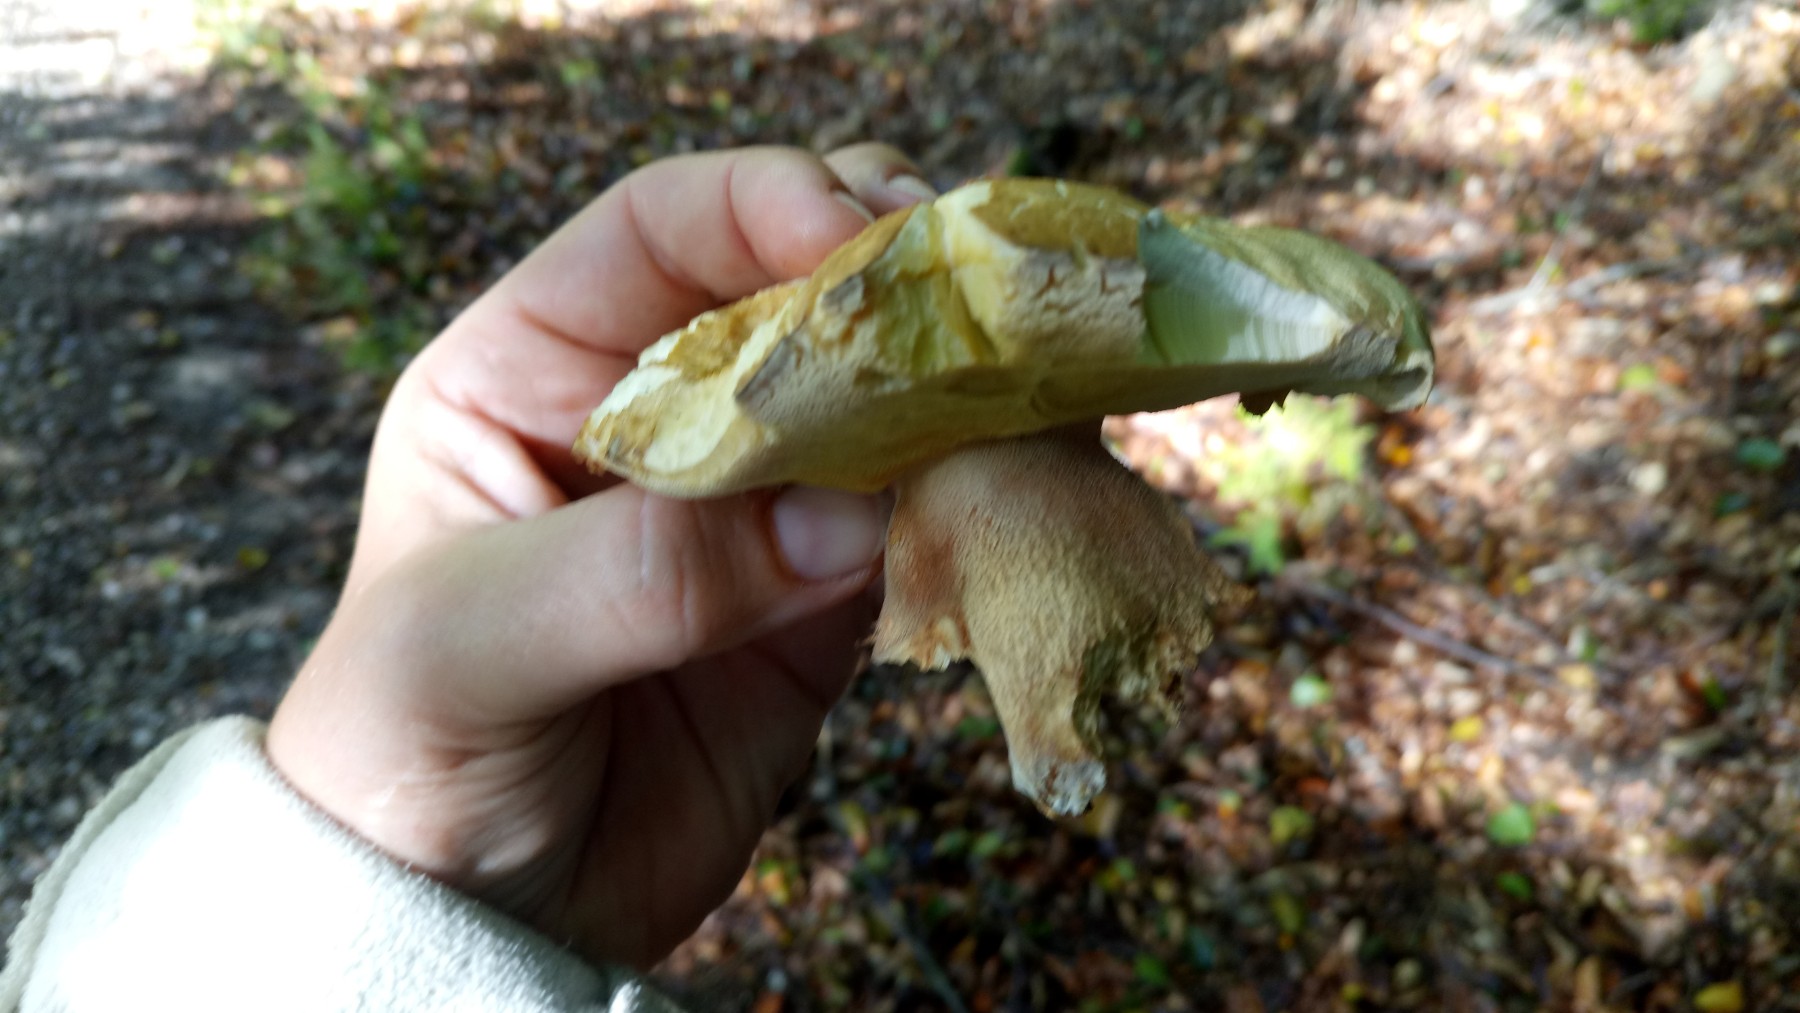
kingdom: Fungi
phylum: Basidiomycota
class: Agaricomycetes
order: Boletales
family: Boletaceae
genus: Boletus
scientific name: Boletus reticulatus
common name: sommer-rørhat
